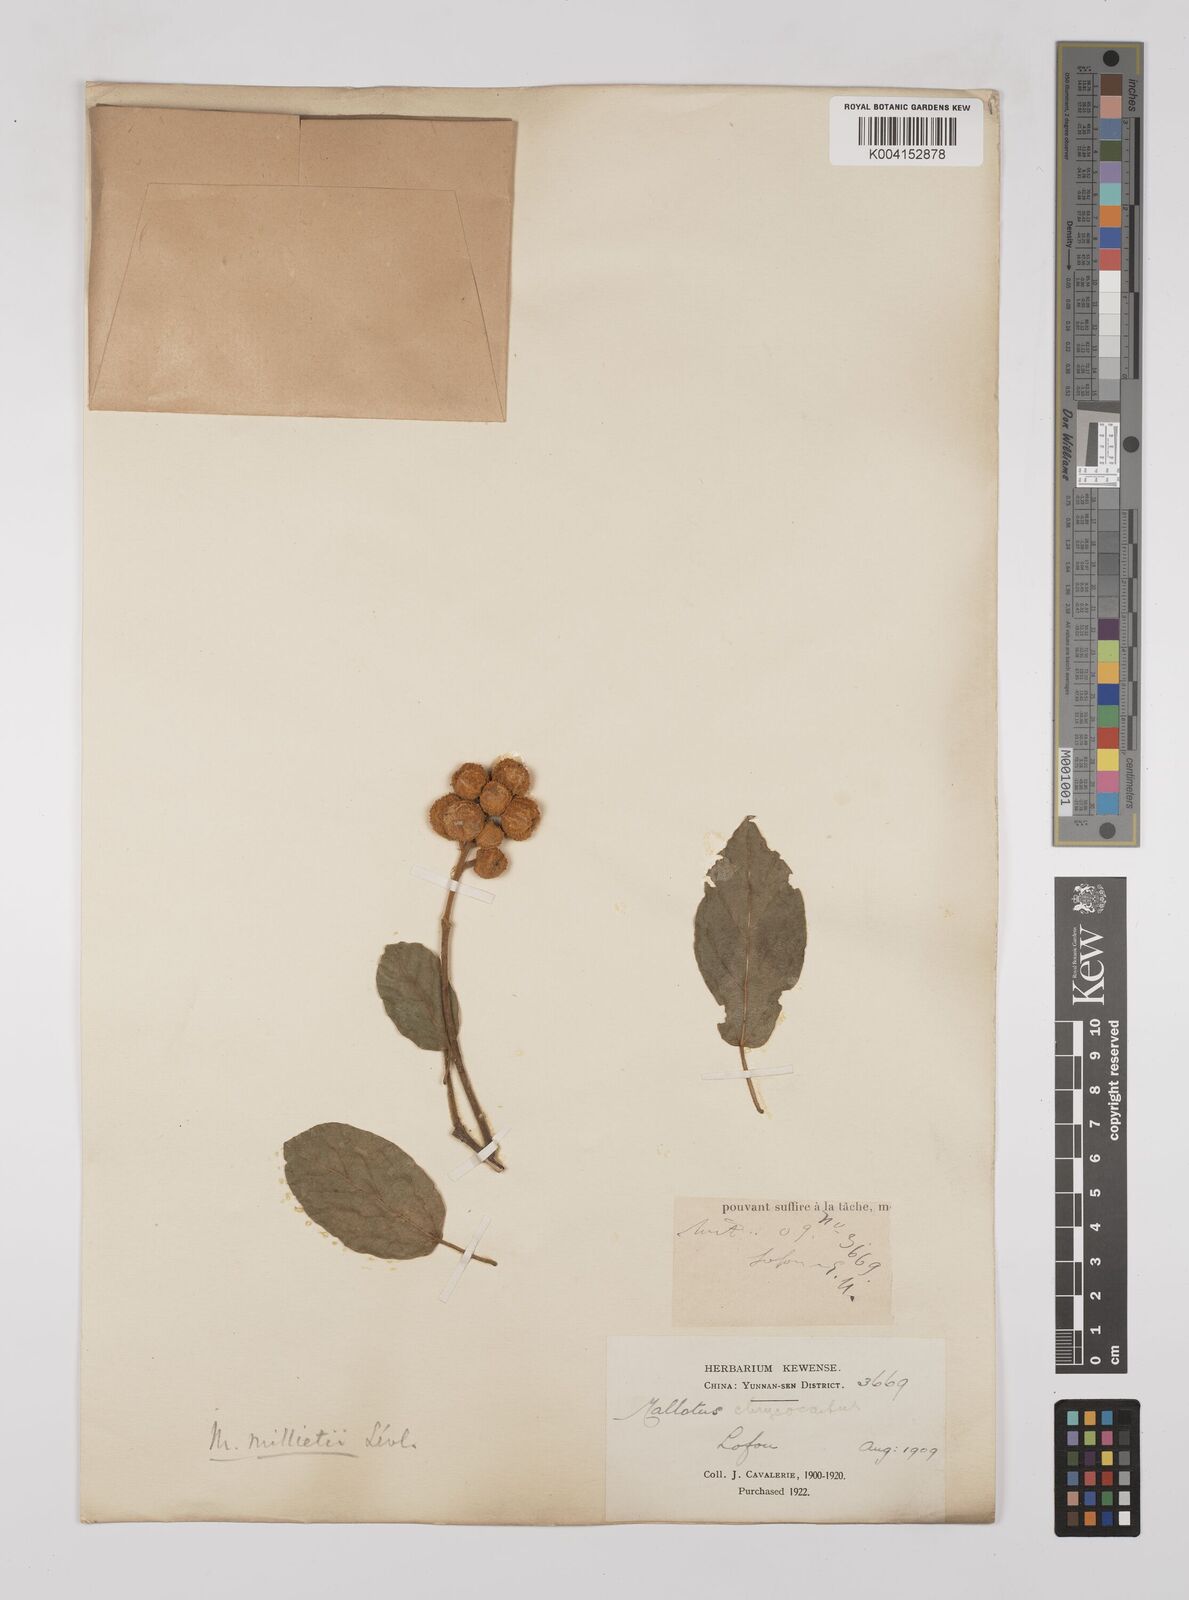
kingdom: Plantae
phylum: Tracheophyta
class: Magnoliopsida
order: Malpighiales
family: Euphorbiaceae
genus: Mallotus
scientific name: Mallotus millietii
